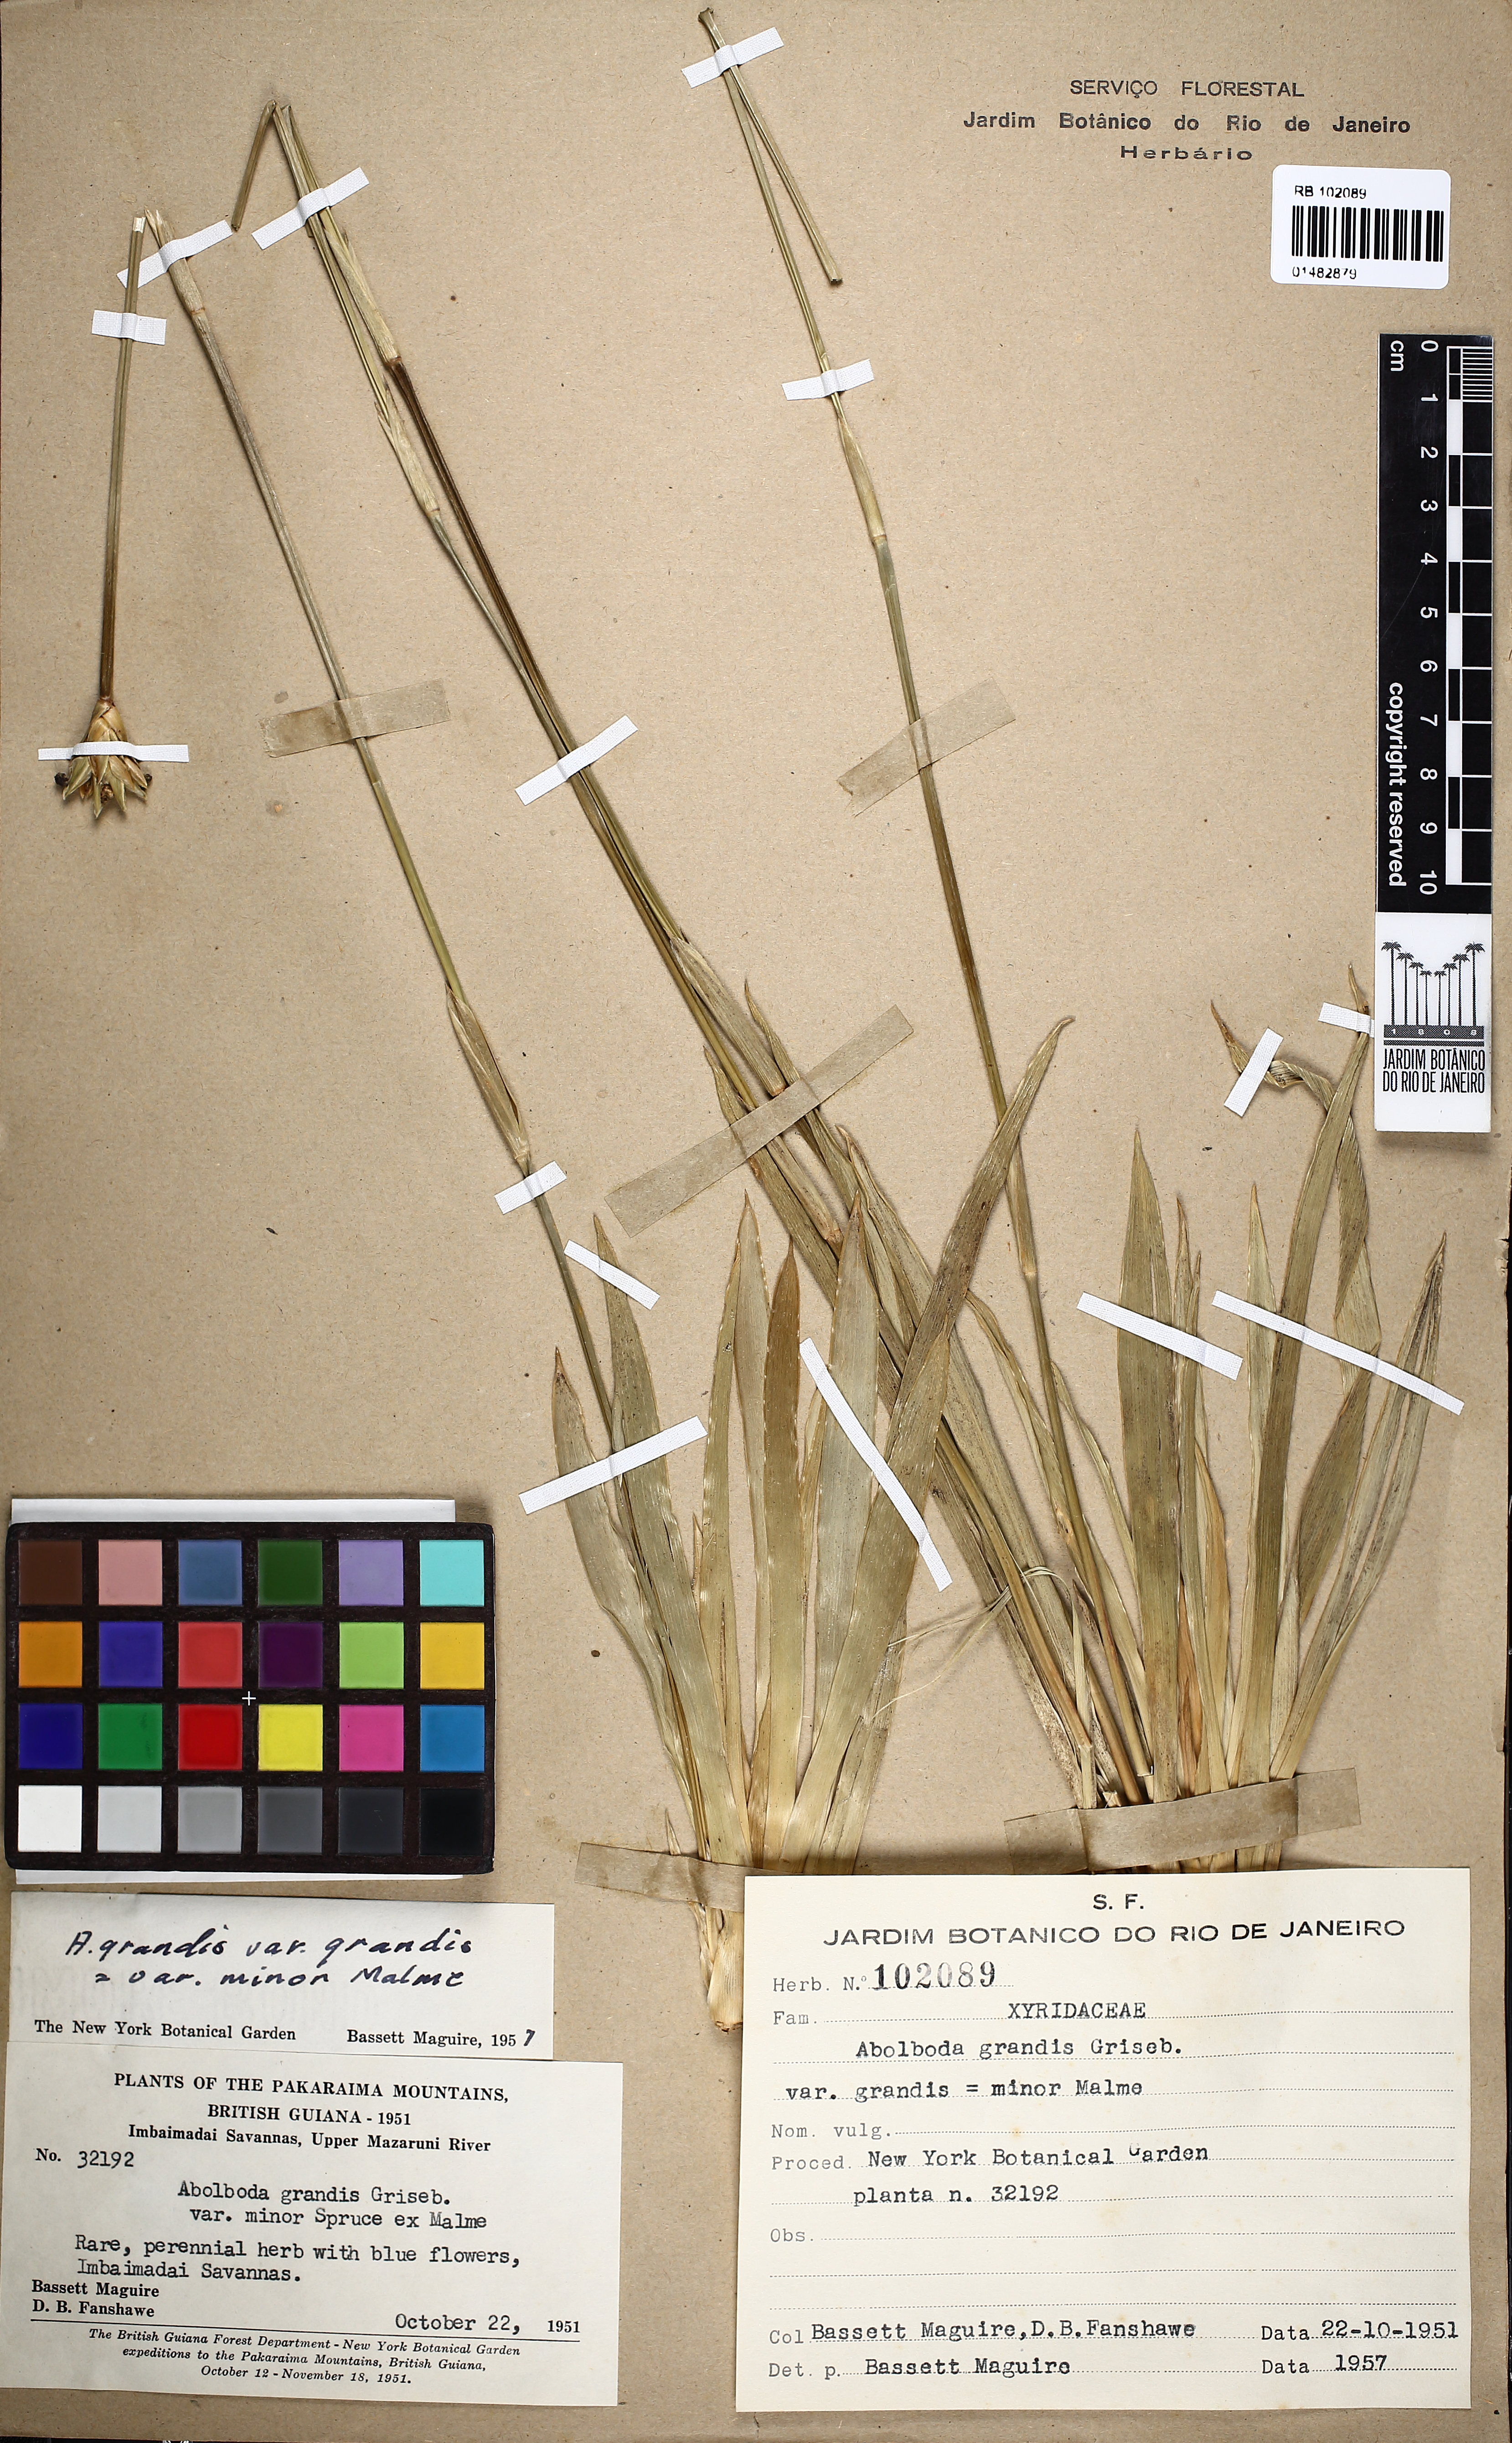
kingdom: Plantae
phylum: Tracheophyta
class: Liliopsida
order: Poales
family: Xyridaceae
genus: Abolboda
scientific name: Abolboda grandis
